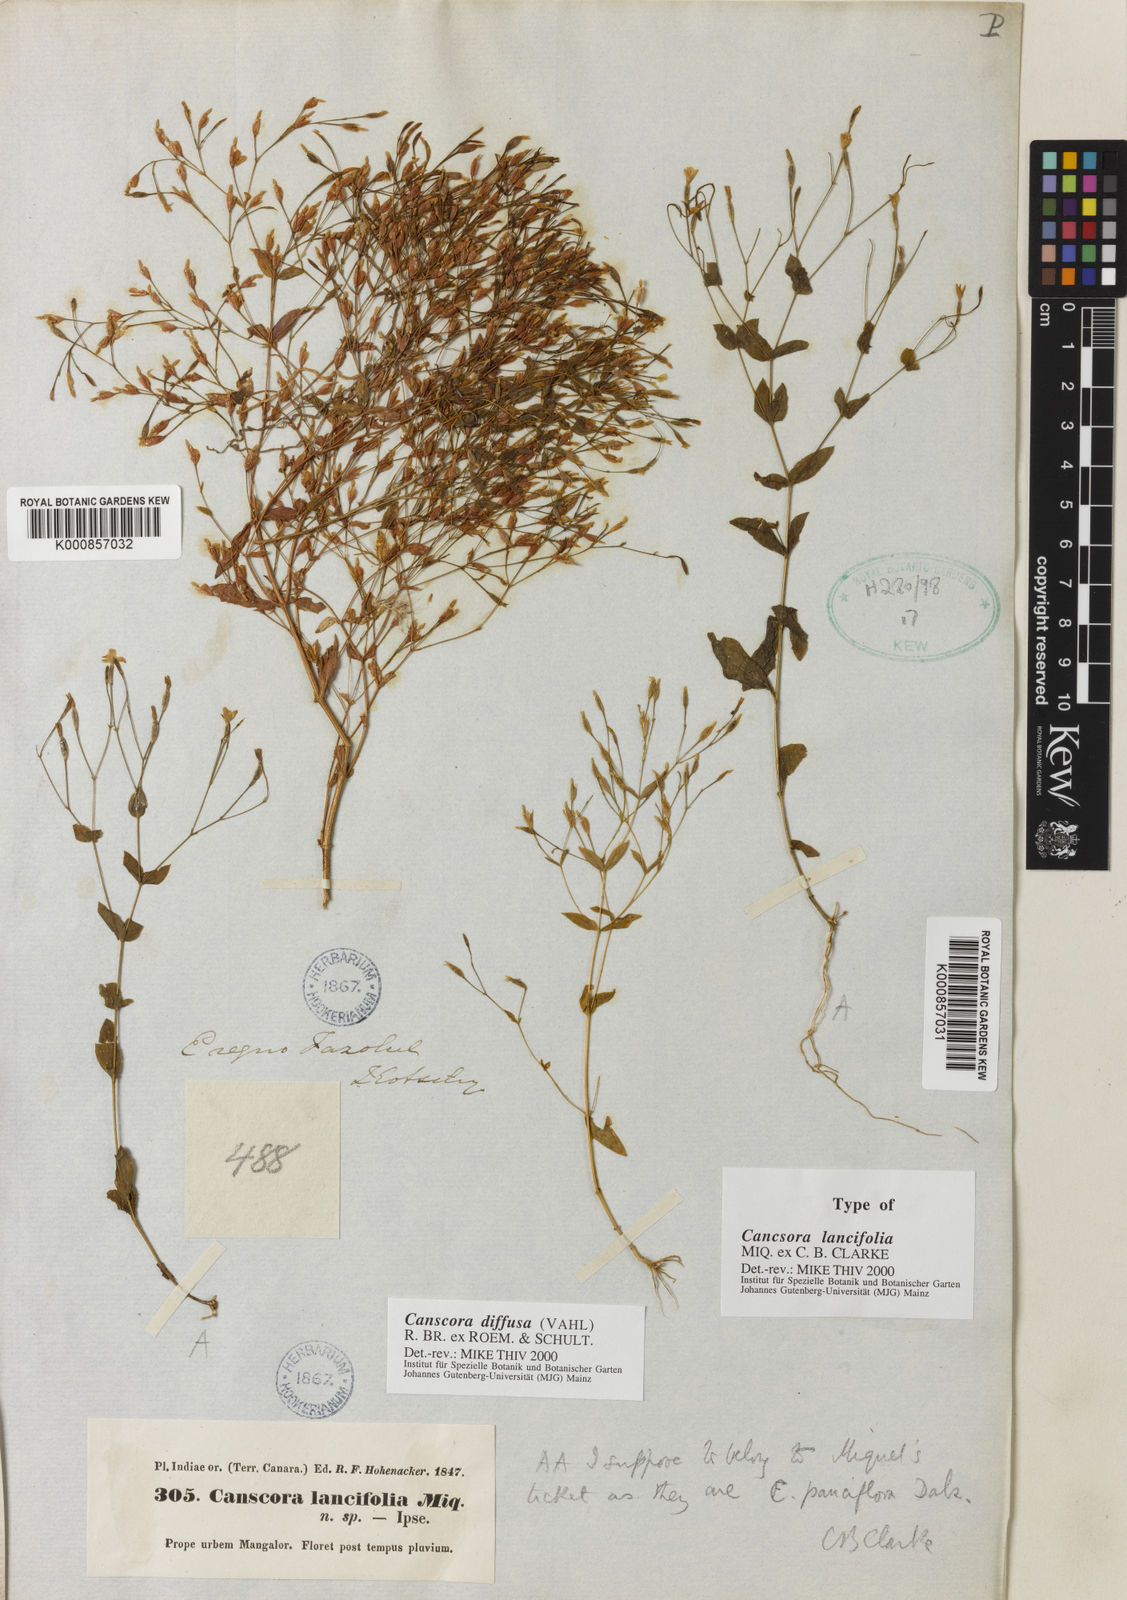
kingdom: Plantae
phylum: Tracheophyta
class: Magnoliopsida
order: Gentianales
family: Gentianaceae
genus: Canscora
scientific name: Canscora diffusa
